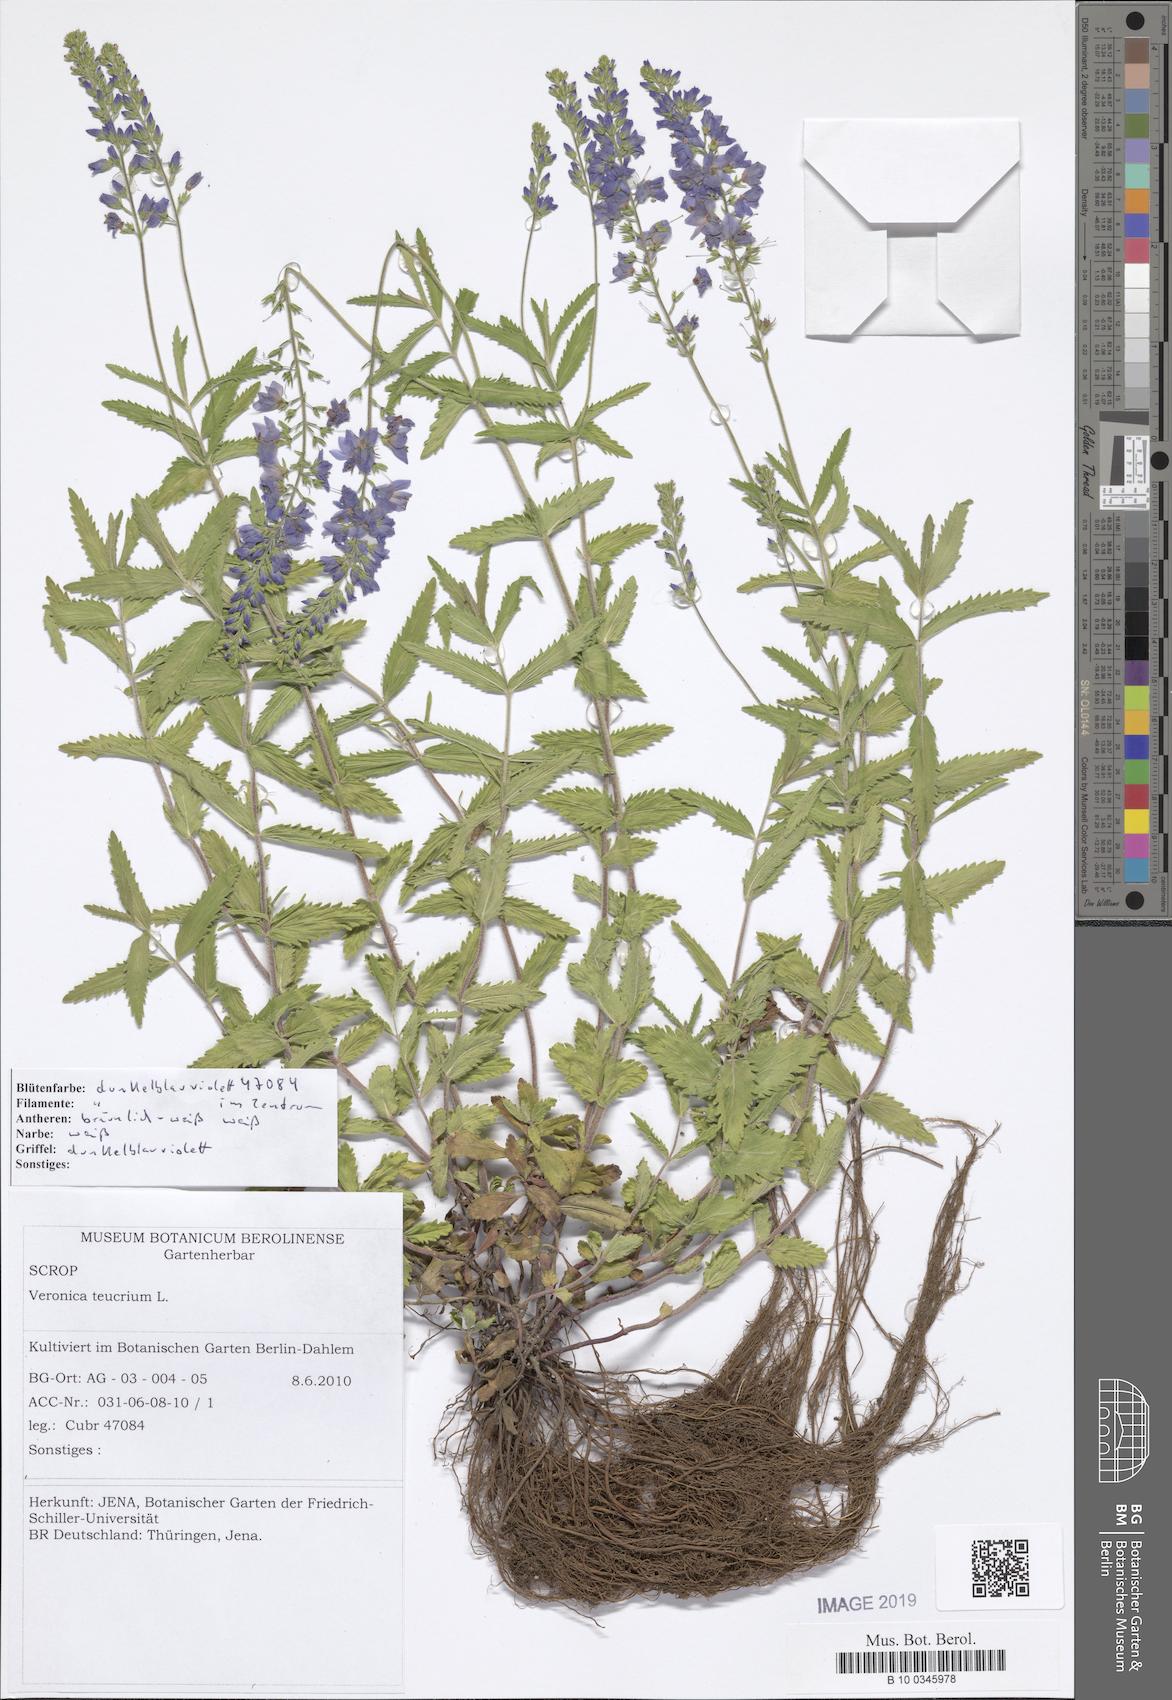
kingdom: Plantae
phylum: Tracheophyta
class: Magnoliopsida
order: Lamiales
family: Plantaginaceae
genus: Veronica
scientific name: Veronica teucrium
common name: Large speedwell
